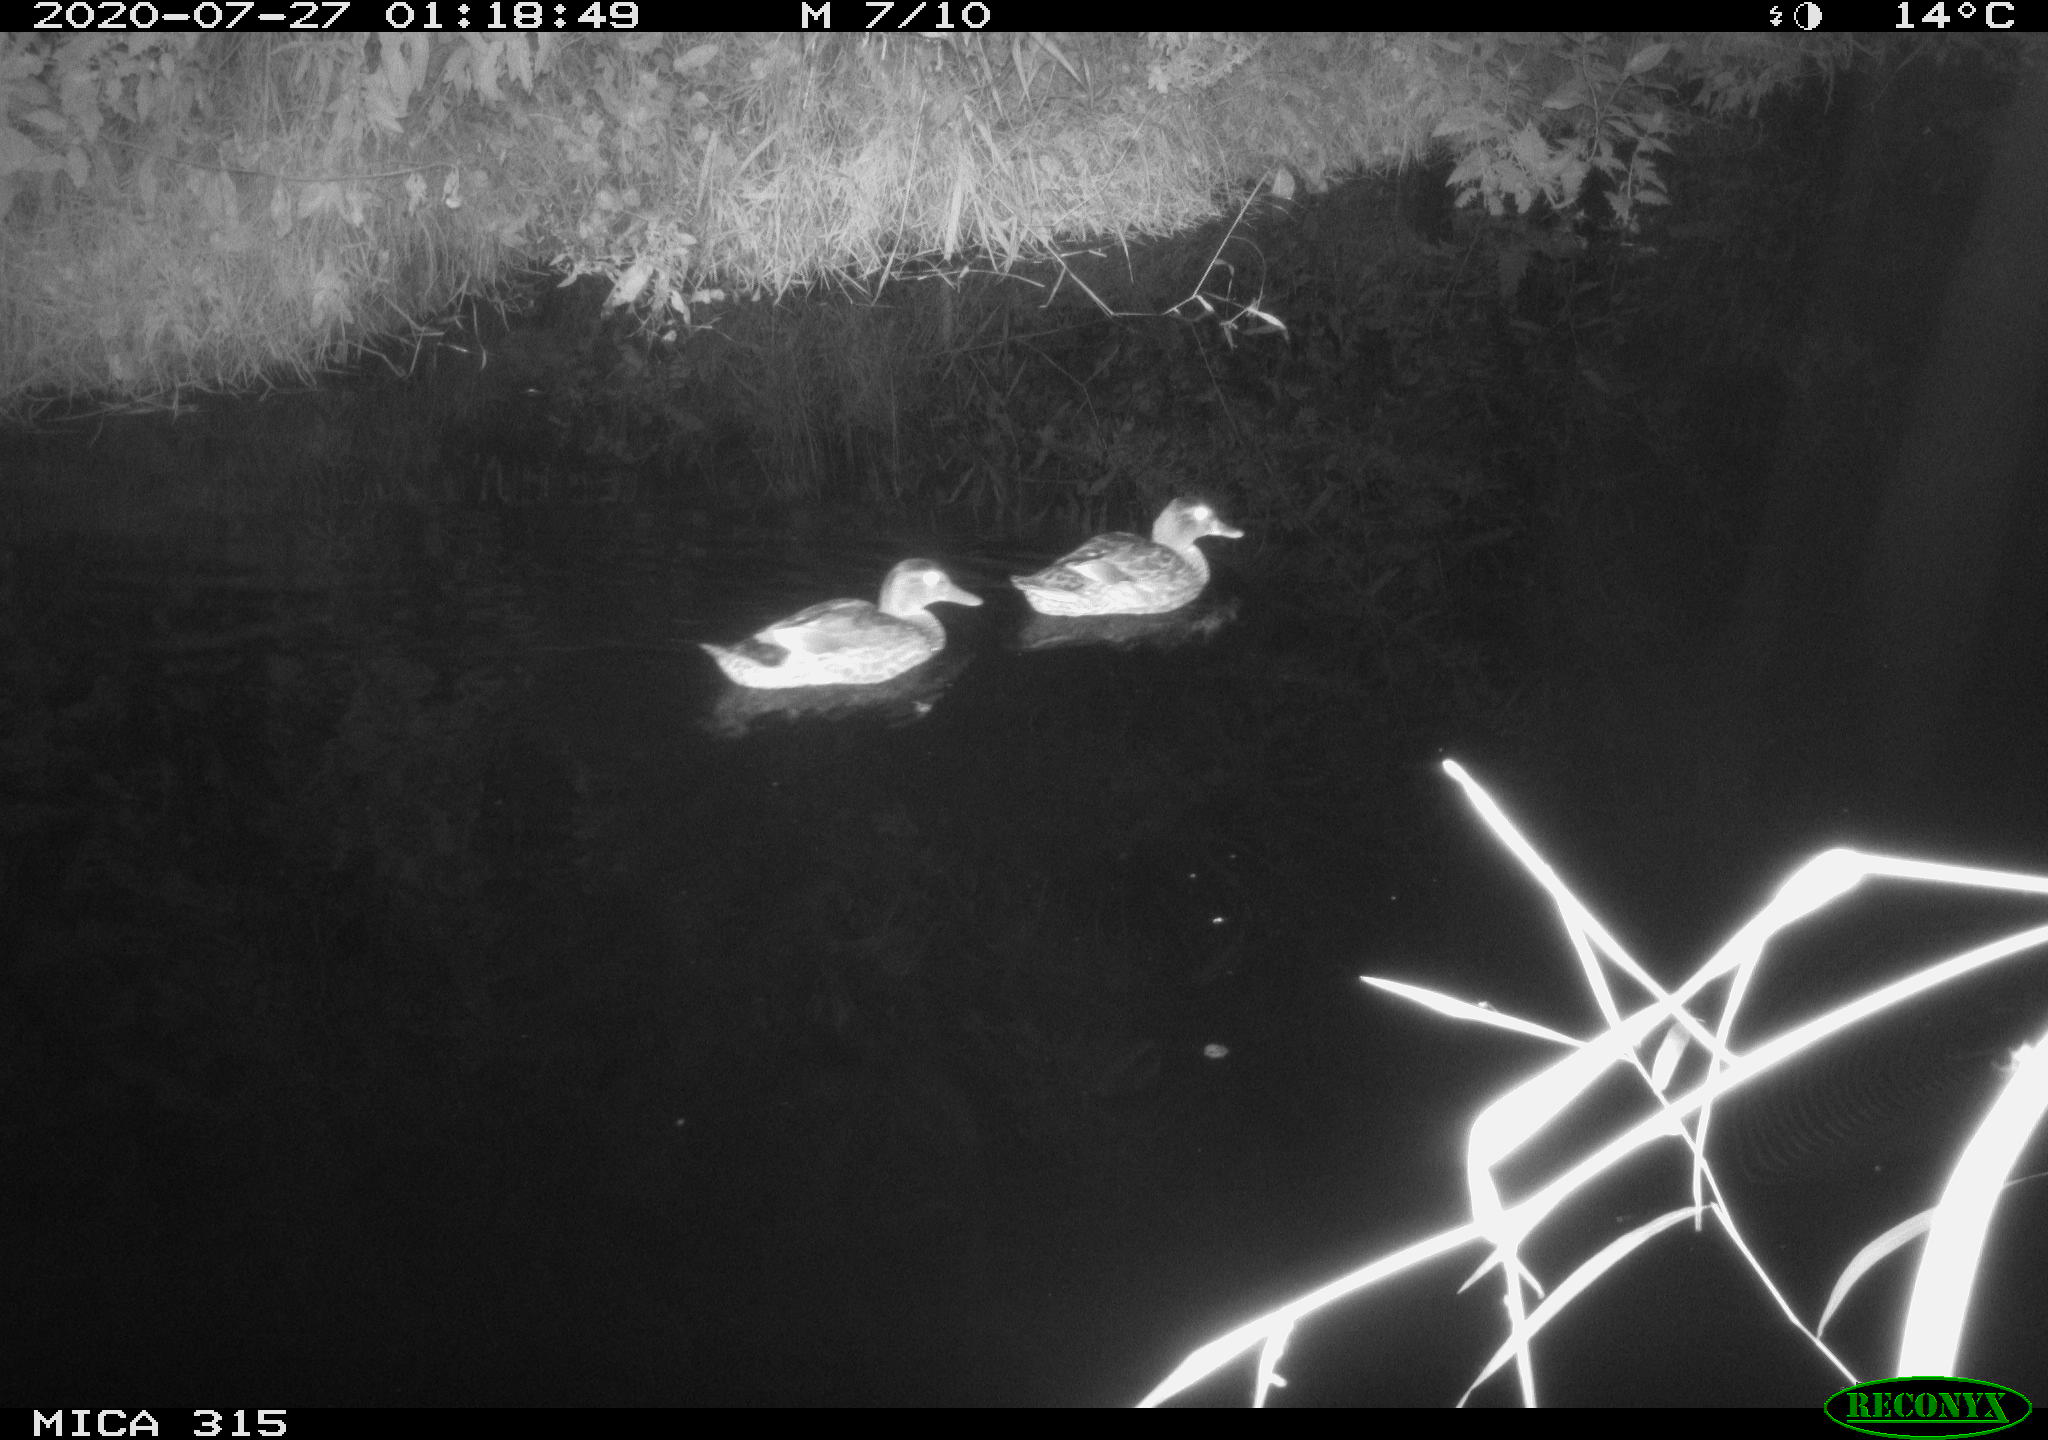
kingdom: Animalia
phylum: Chordata
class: Aves
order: Anseriformes
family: Anatidae
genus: Anas
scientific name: Anas platyrhynchos
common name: Mallard
